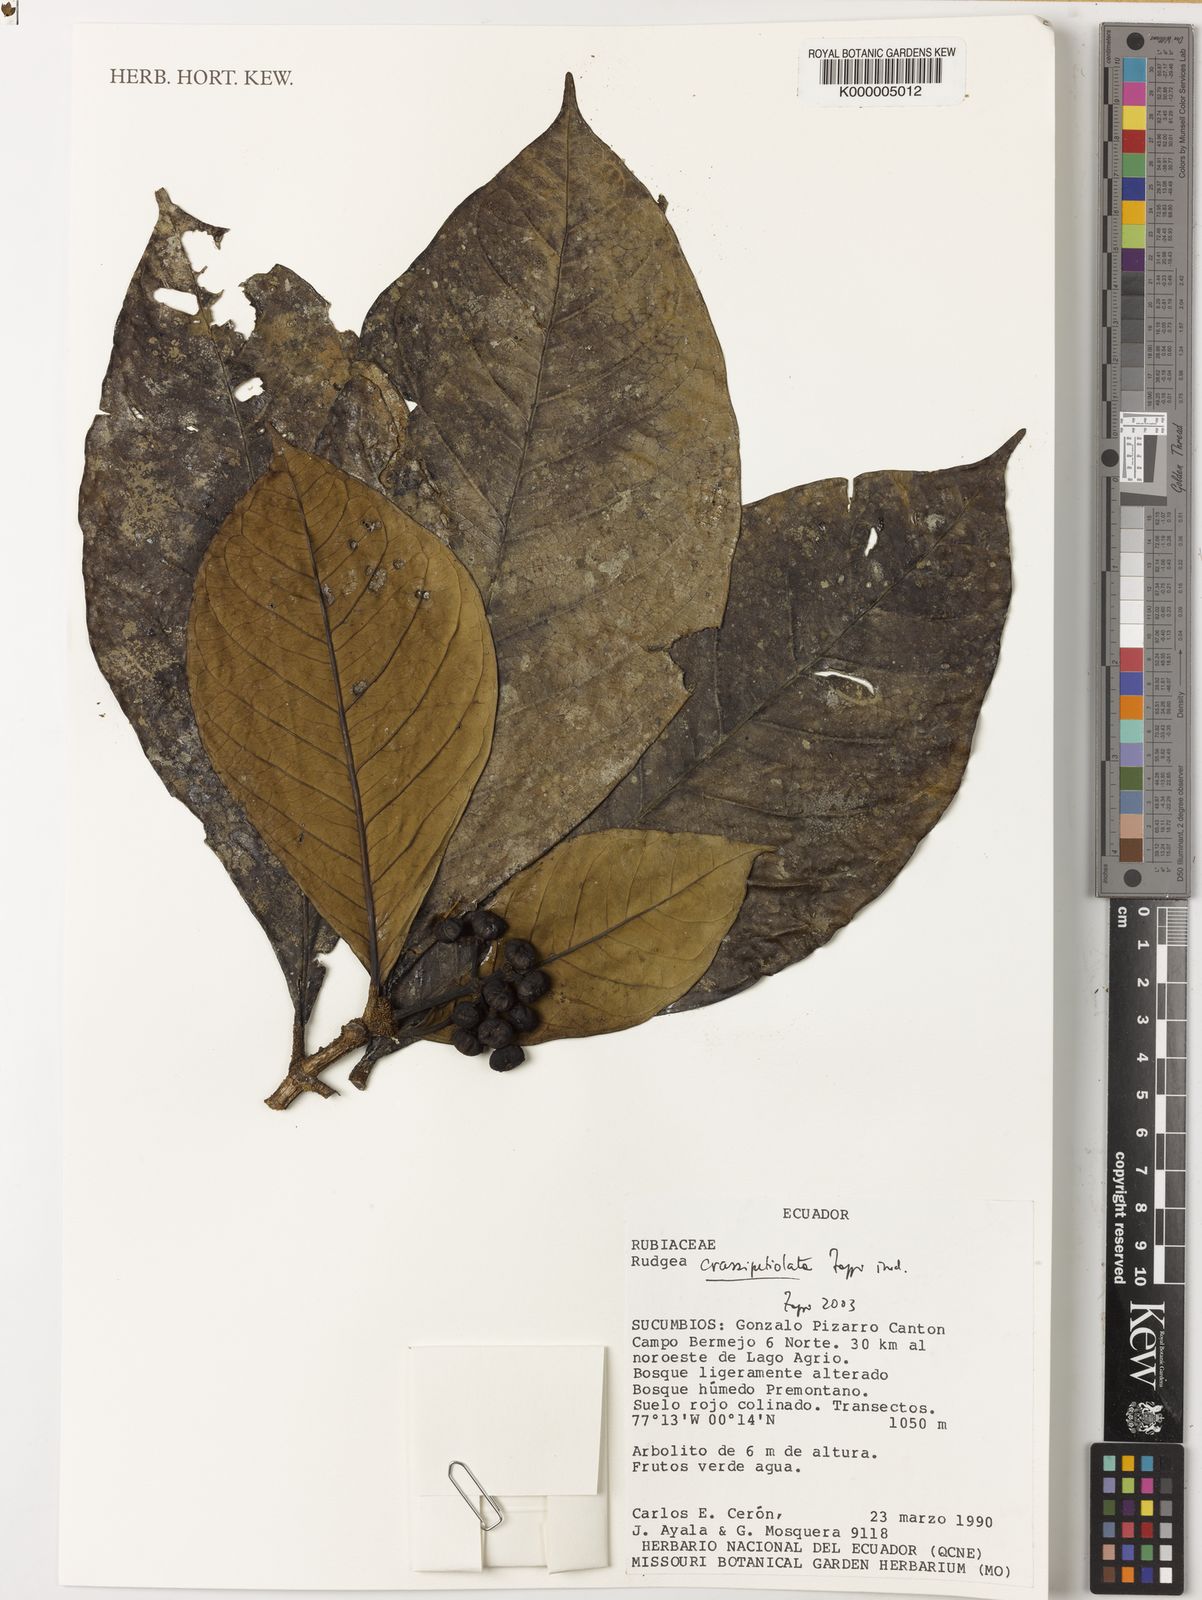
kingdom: Plantae
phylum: Tracheophyta
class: Magnoliopsida
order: Gentianales
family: Rubiaceae
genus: Rudgea
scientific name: Rudgea obesiflora
